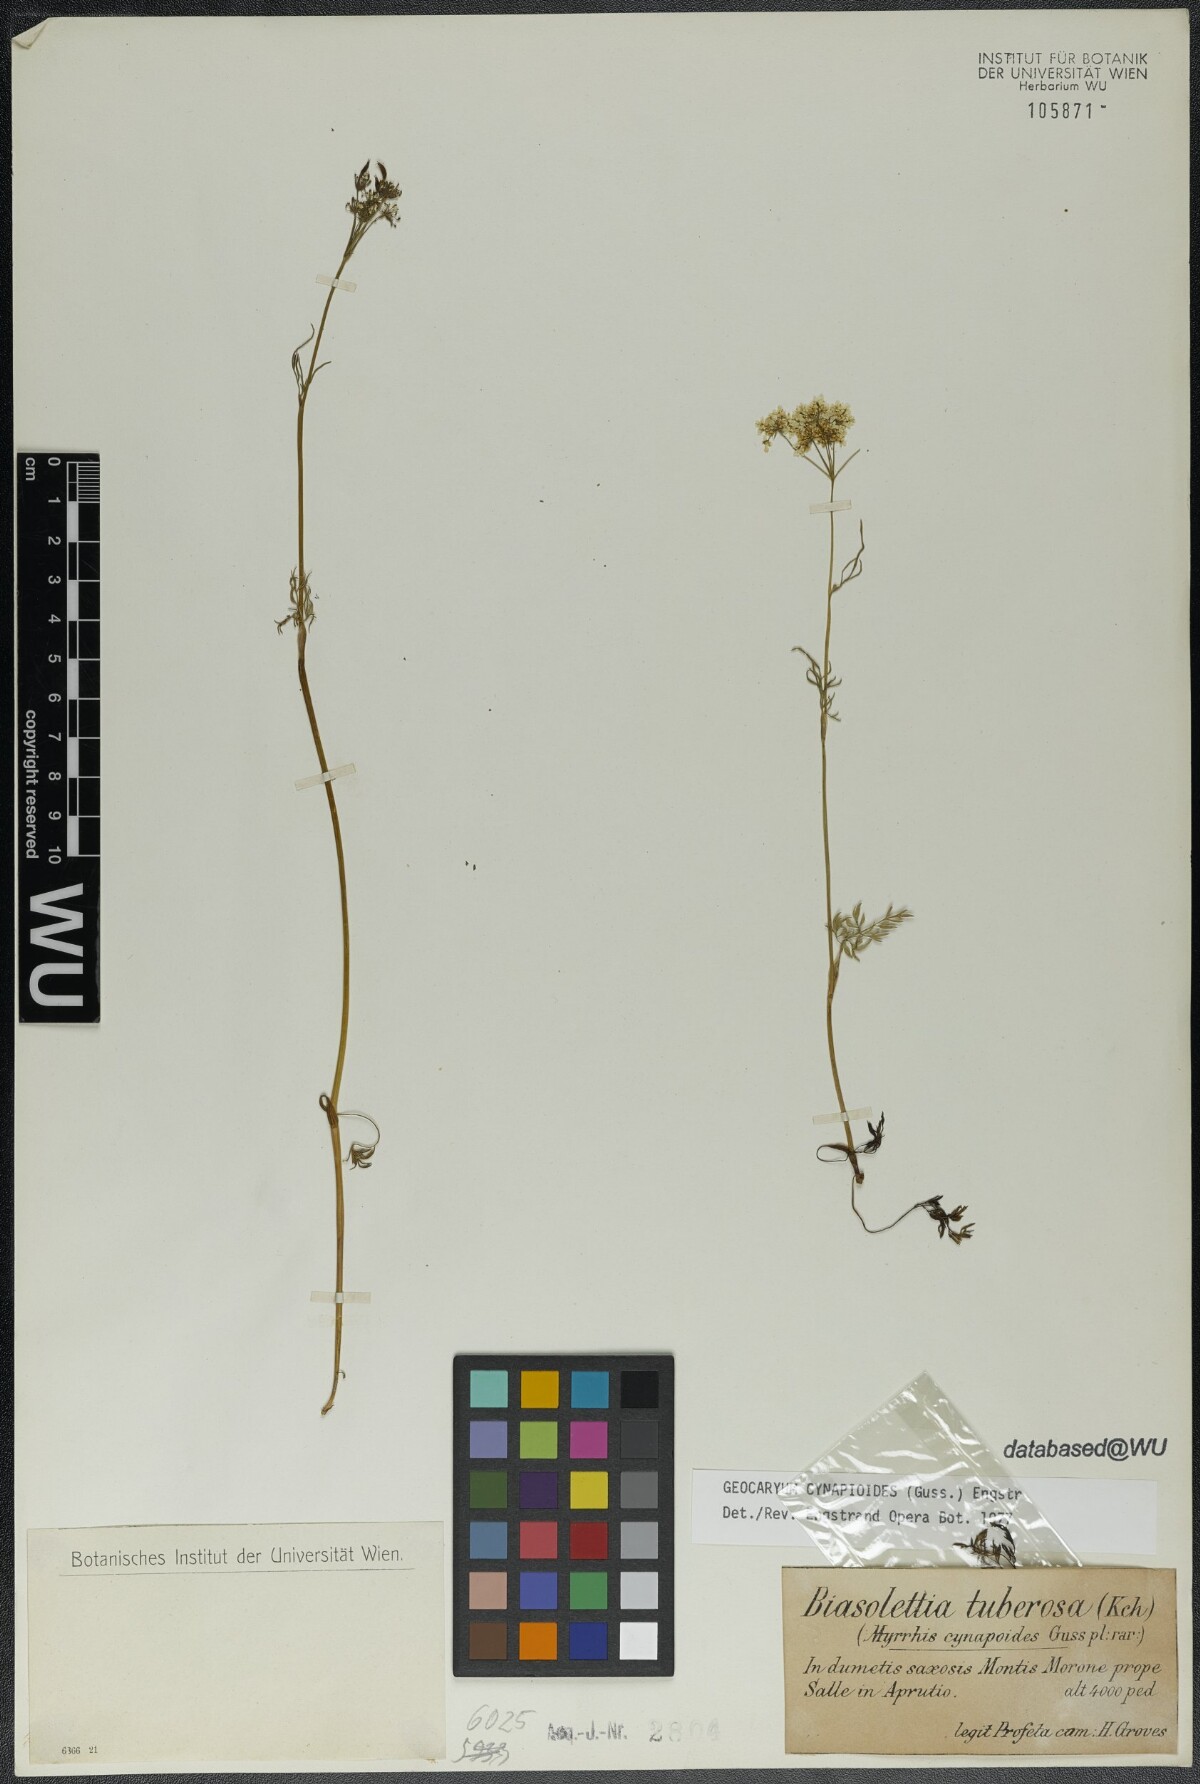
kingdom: Plantae
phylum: Tracheophyta
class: Magnoliopsida
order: Apiales
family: Apiaceae
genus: Geocaryum
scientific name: Geocaryum cynapioides
